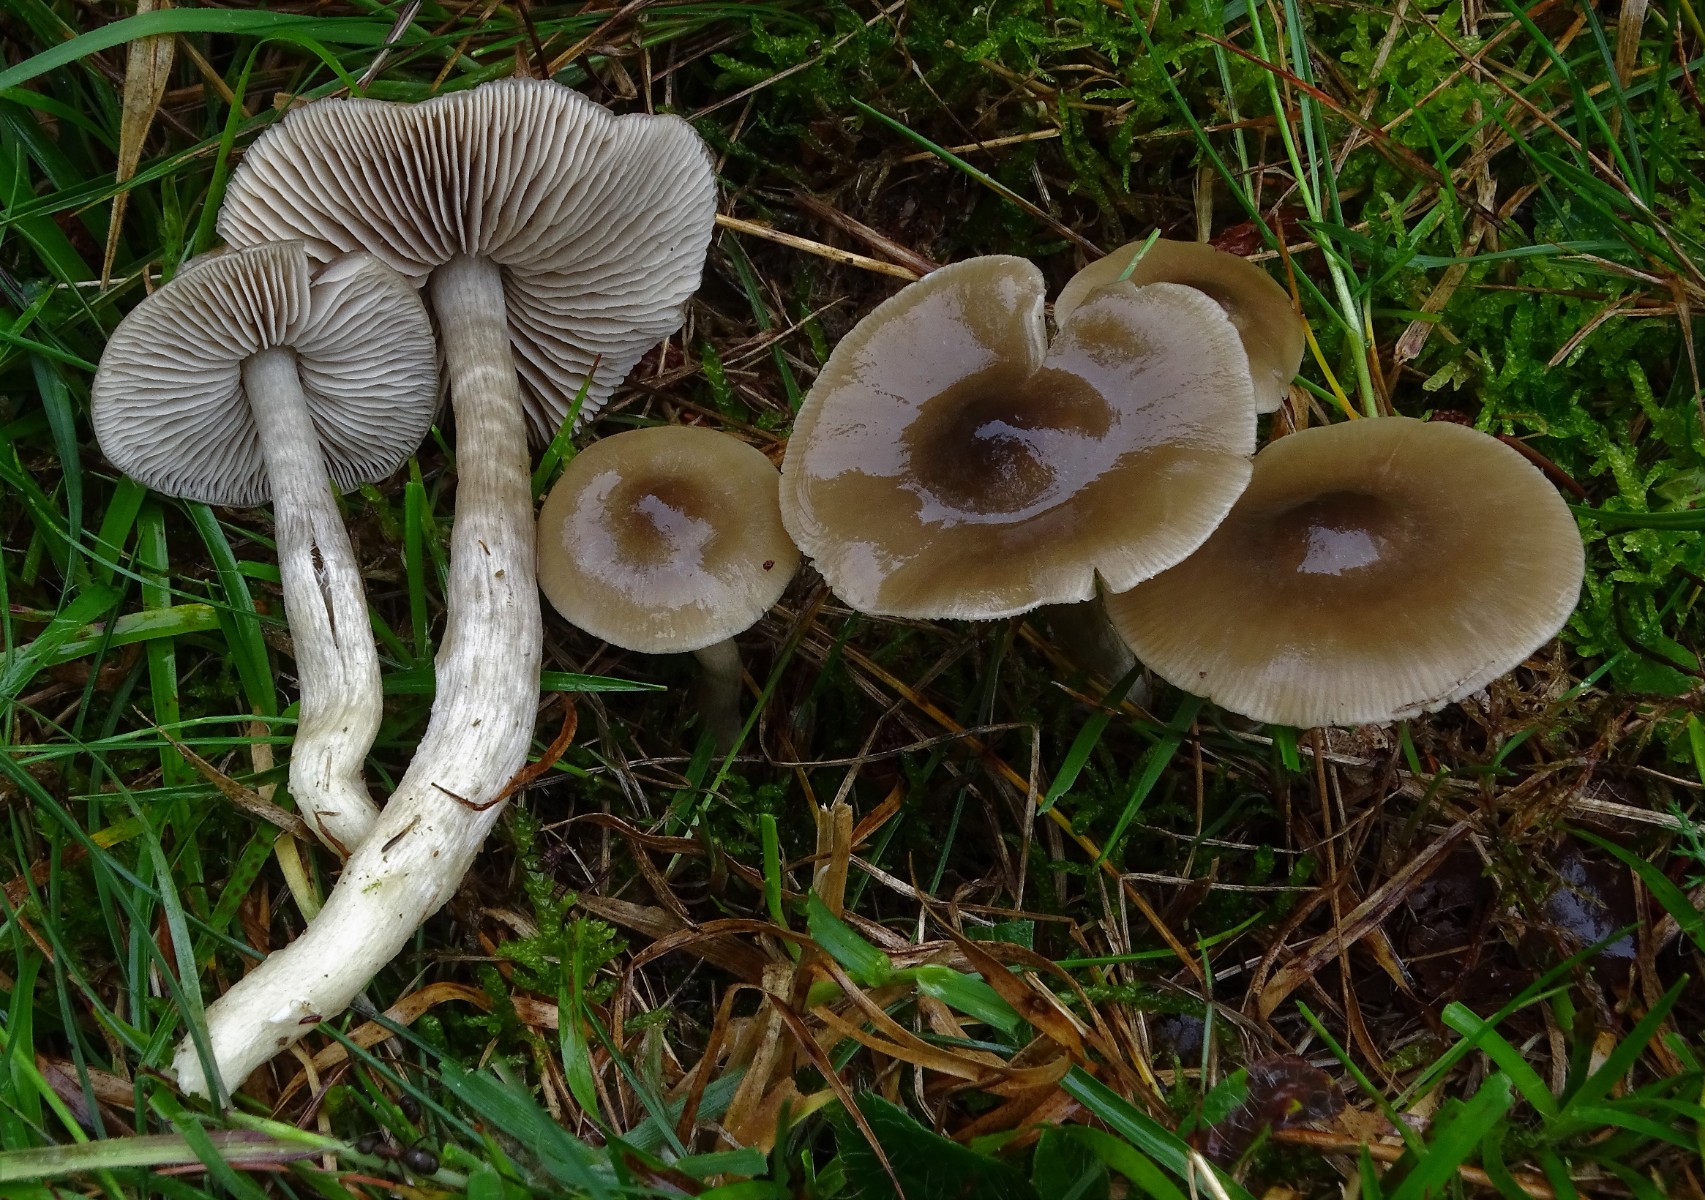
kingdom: Fungi
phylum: Basidiomycota
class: Agaricomycetes
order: Agaricales
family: Entolomataceae
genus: Entocybe
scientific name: Entocybe turbida
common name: plantage-rødblad
